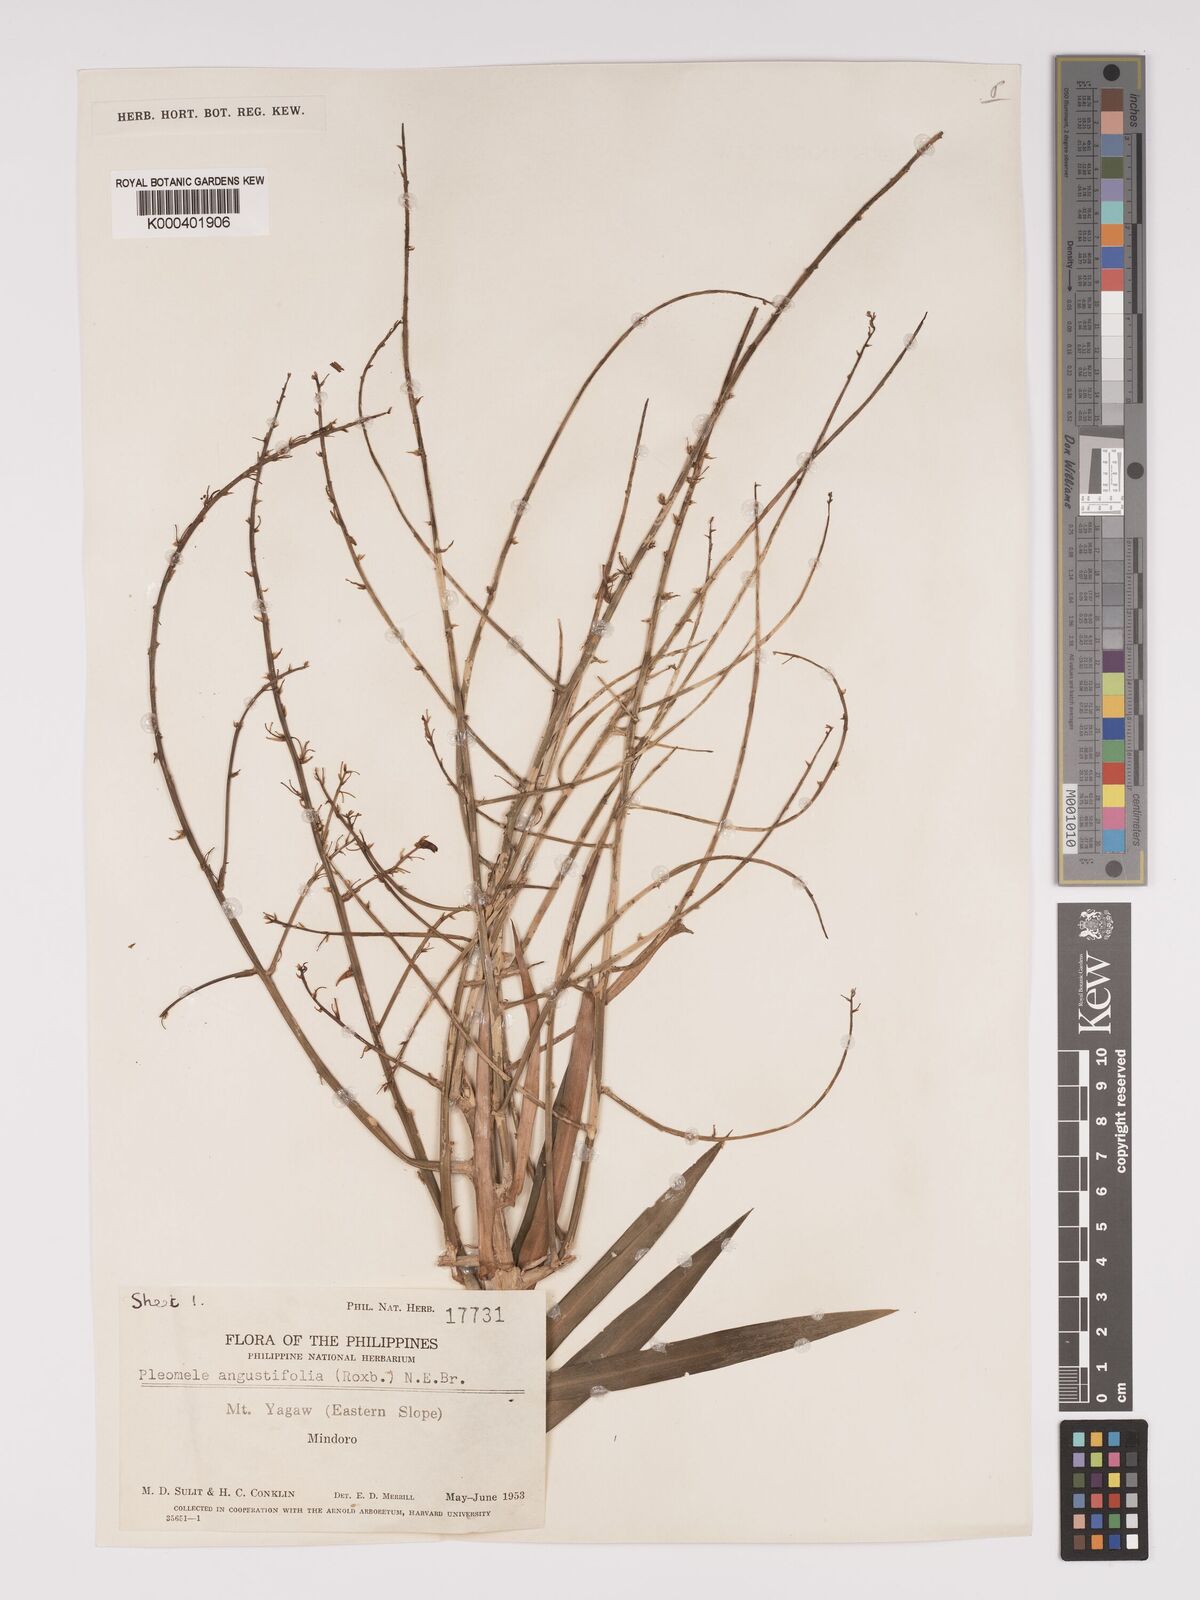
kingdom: Plantae
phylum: Tracheophyta
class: Liliopsida
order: Asparagales
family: Asparagaceae
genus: Dracaena
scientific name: Dracaena angustifolia
